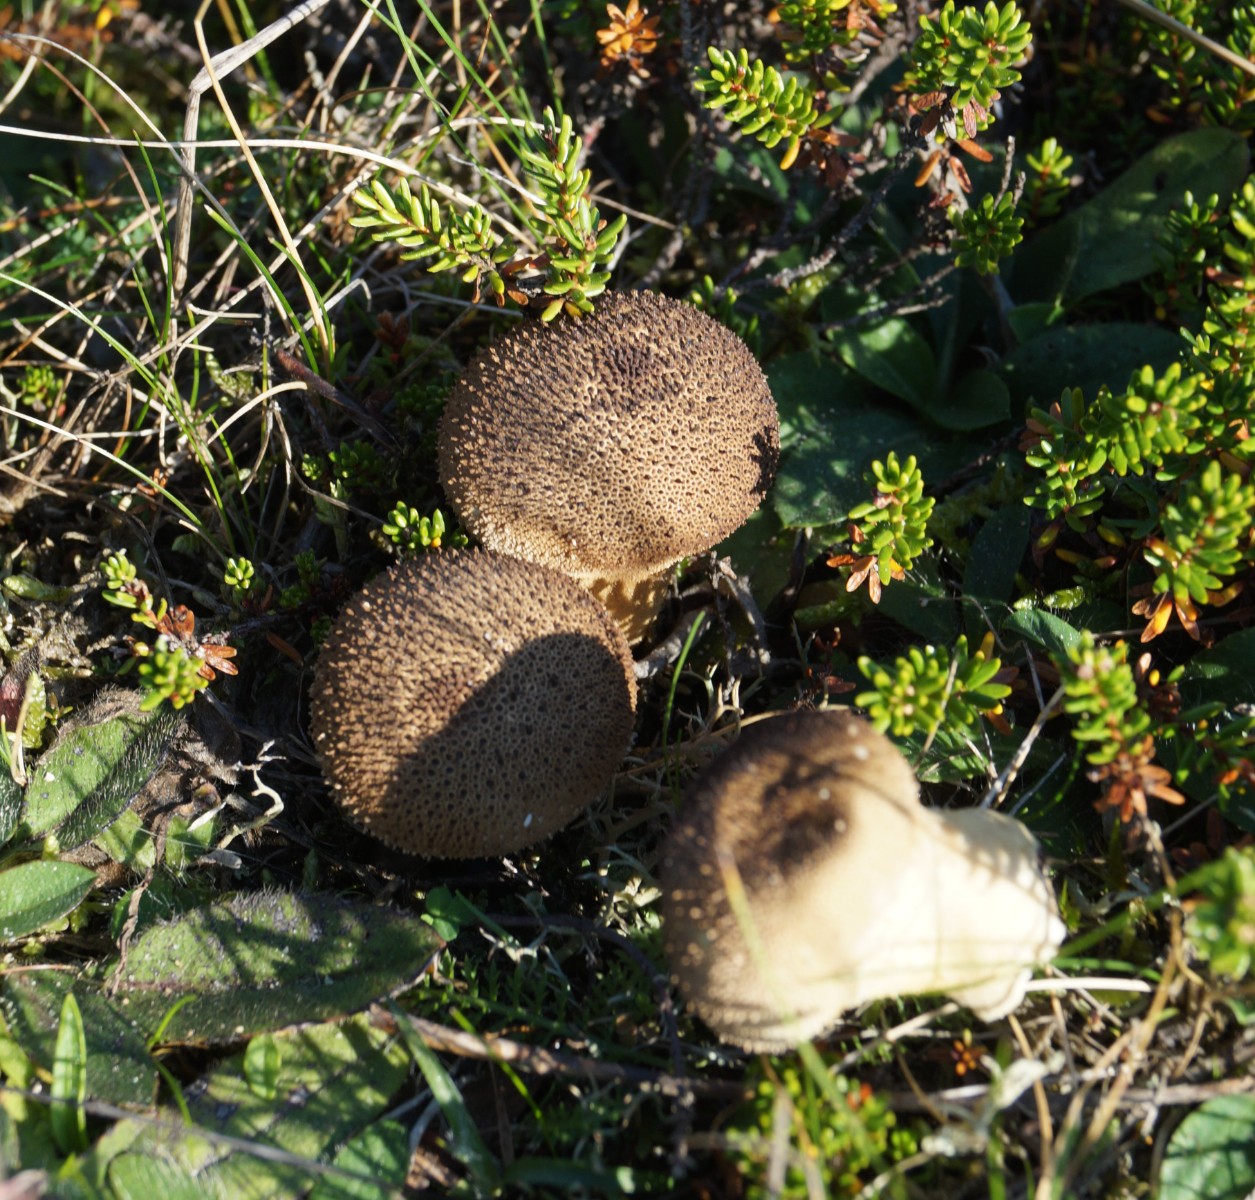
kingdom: Fungi
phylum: Basidiomycota
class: Agaricomycetes
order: Agaricales
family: Lycoperdaceae
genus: Lycoperdon
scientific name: Lycoperdon nigrescens
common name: sortagtig støvbold
